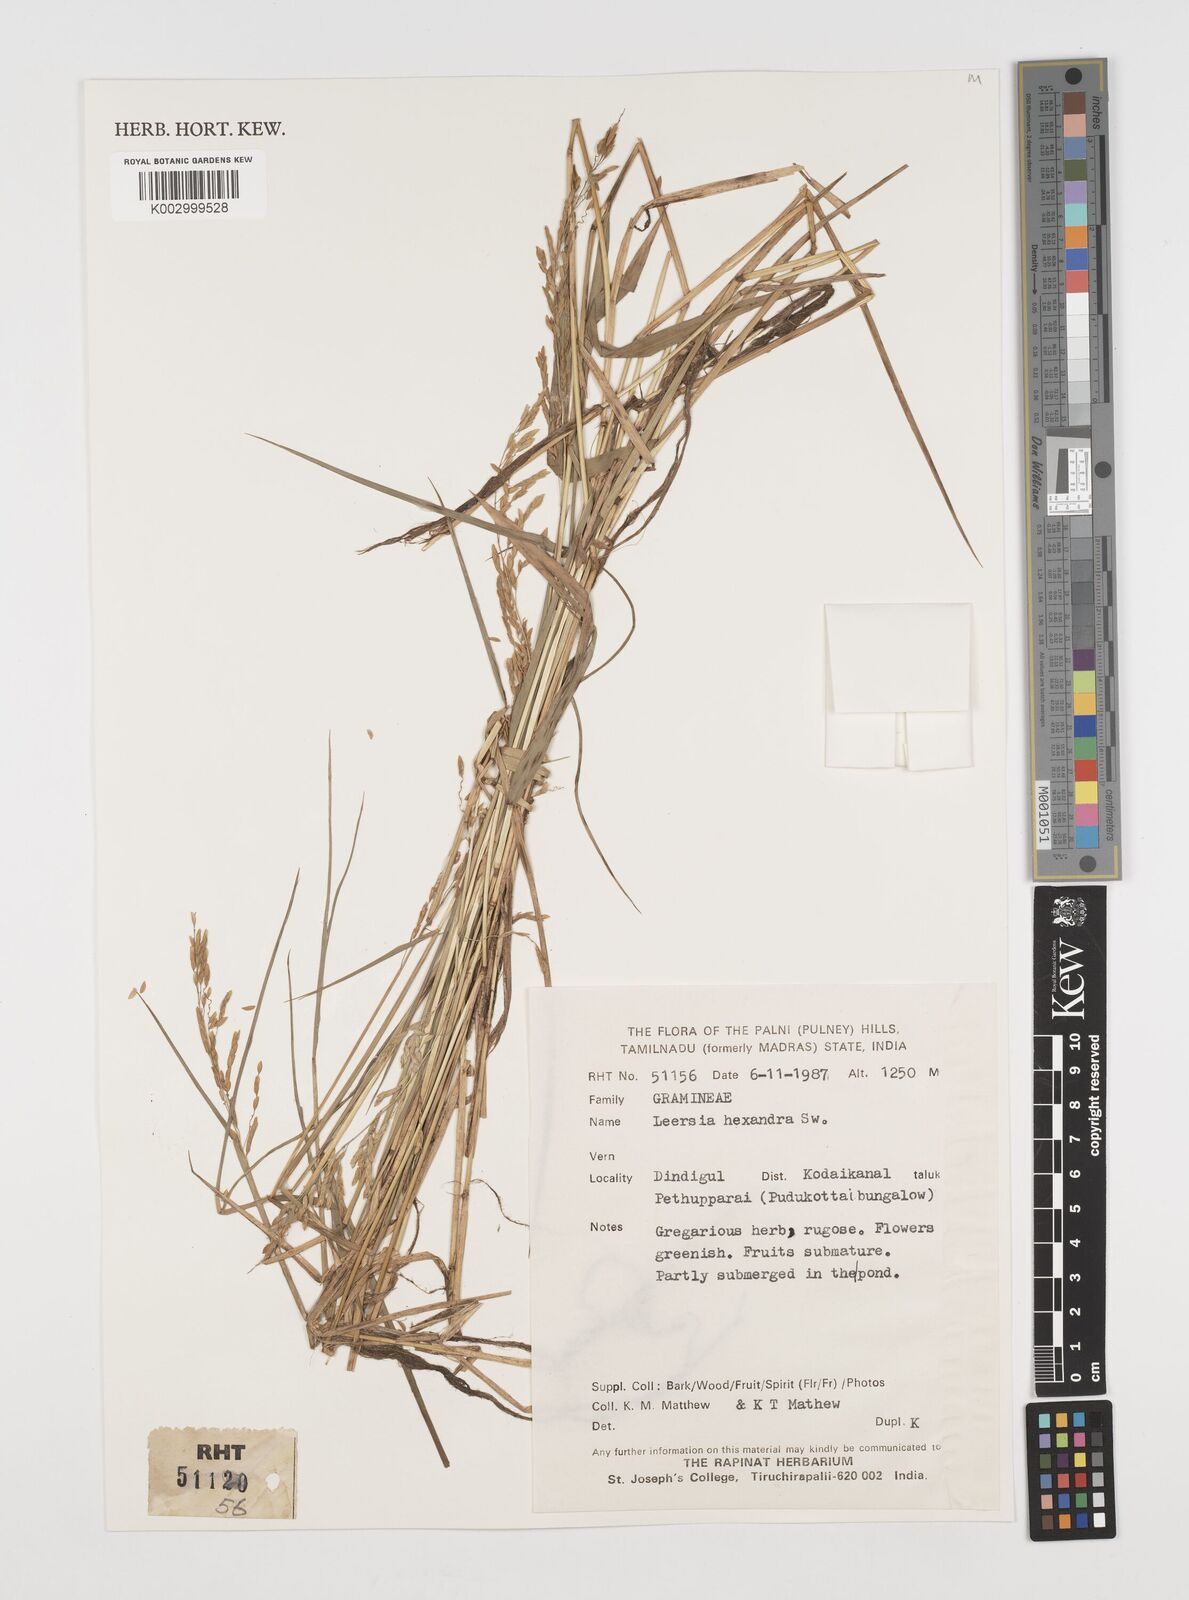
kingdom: Plantae
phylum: Tracheophyta
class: Liliopsida
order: Poales
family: Poaceae
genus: Leersia
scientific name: Leersia hexandra
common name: Southern cut grass
